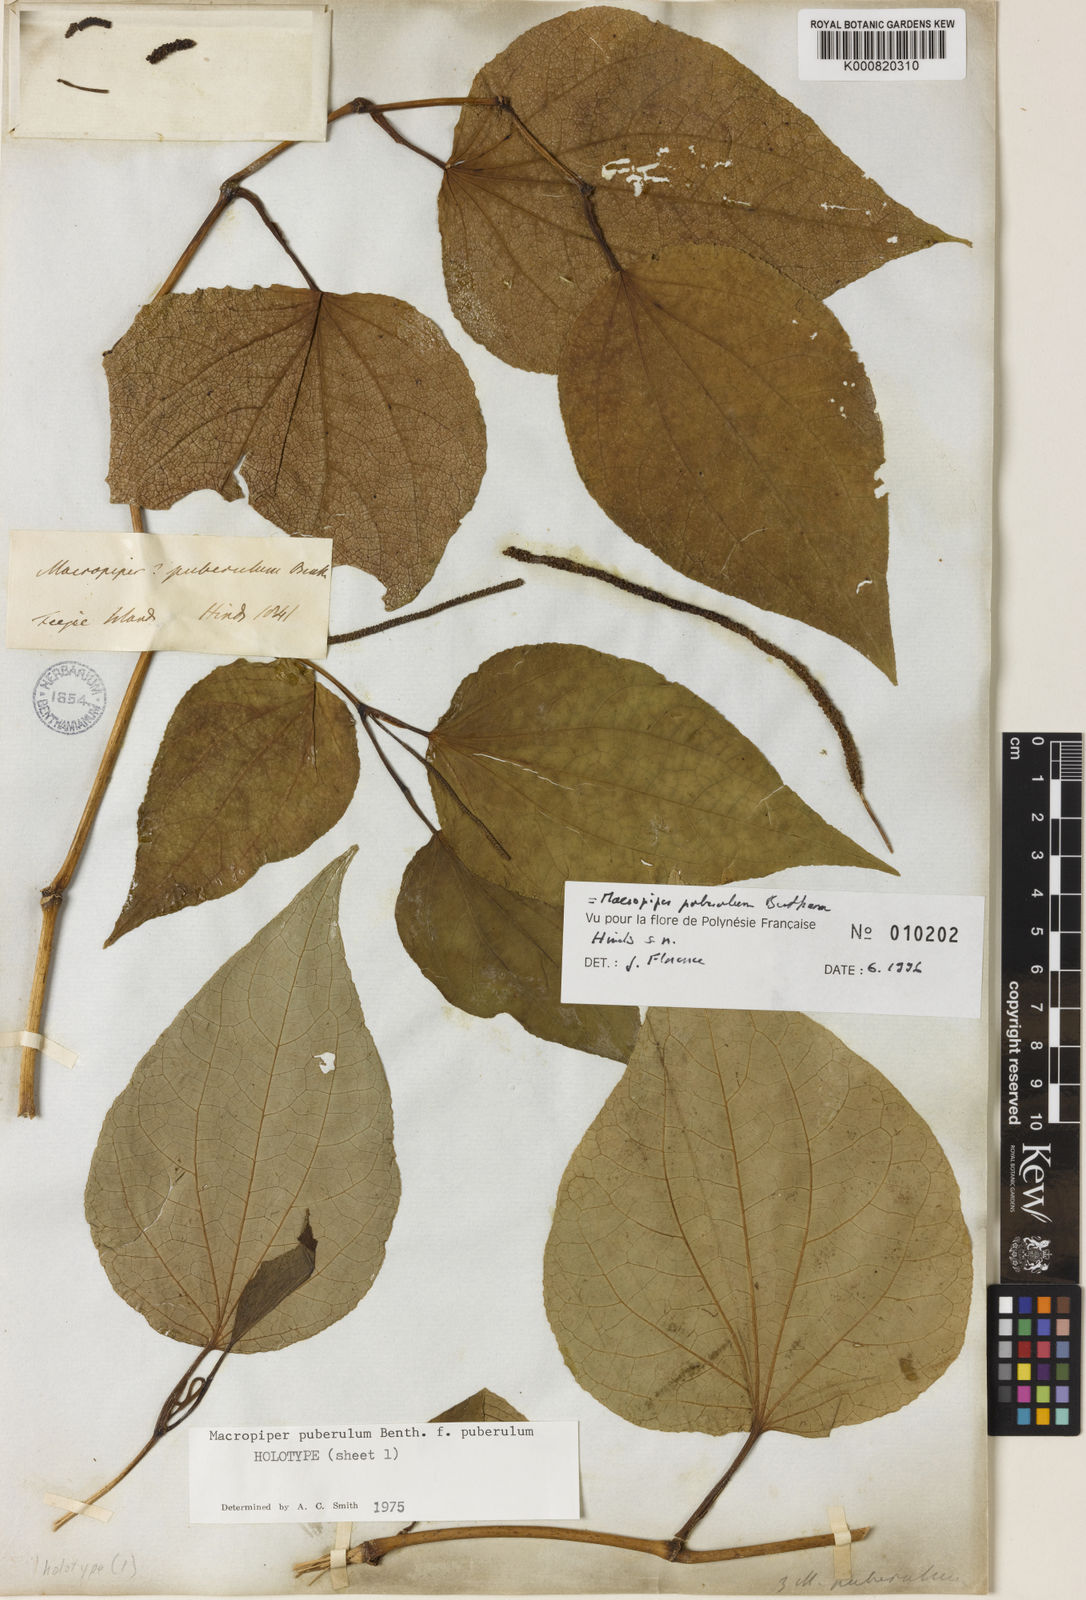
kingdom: Plantae
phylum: Tracheophyta
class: Magnoliopsida
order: Piperales
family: Piperaceae
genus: Macropiper
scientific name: Macropiper puberulum
